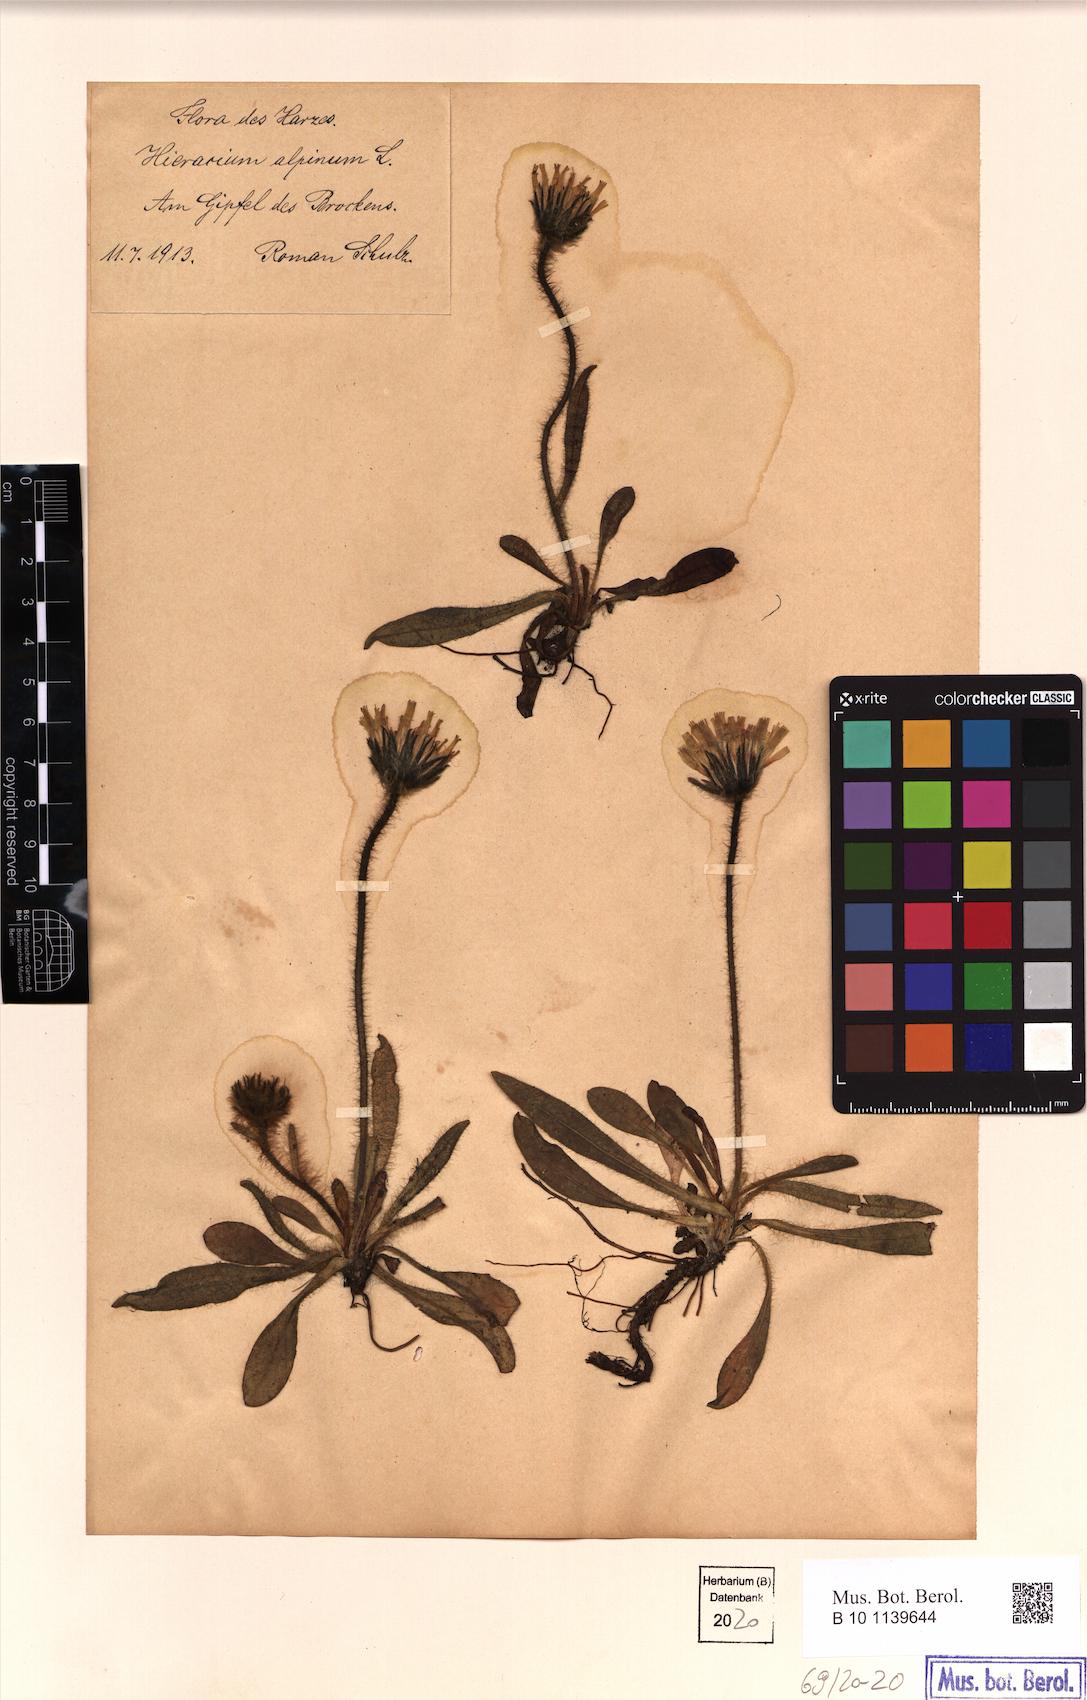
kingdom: Plantae
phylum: Tracheophyta
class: Magnoliopsida
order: Asterales
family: Asteraceae
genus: Hieracium
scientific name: Hieracium alpinum
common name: Alpine hawkweed
